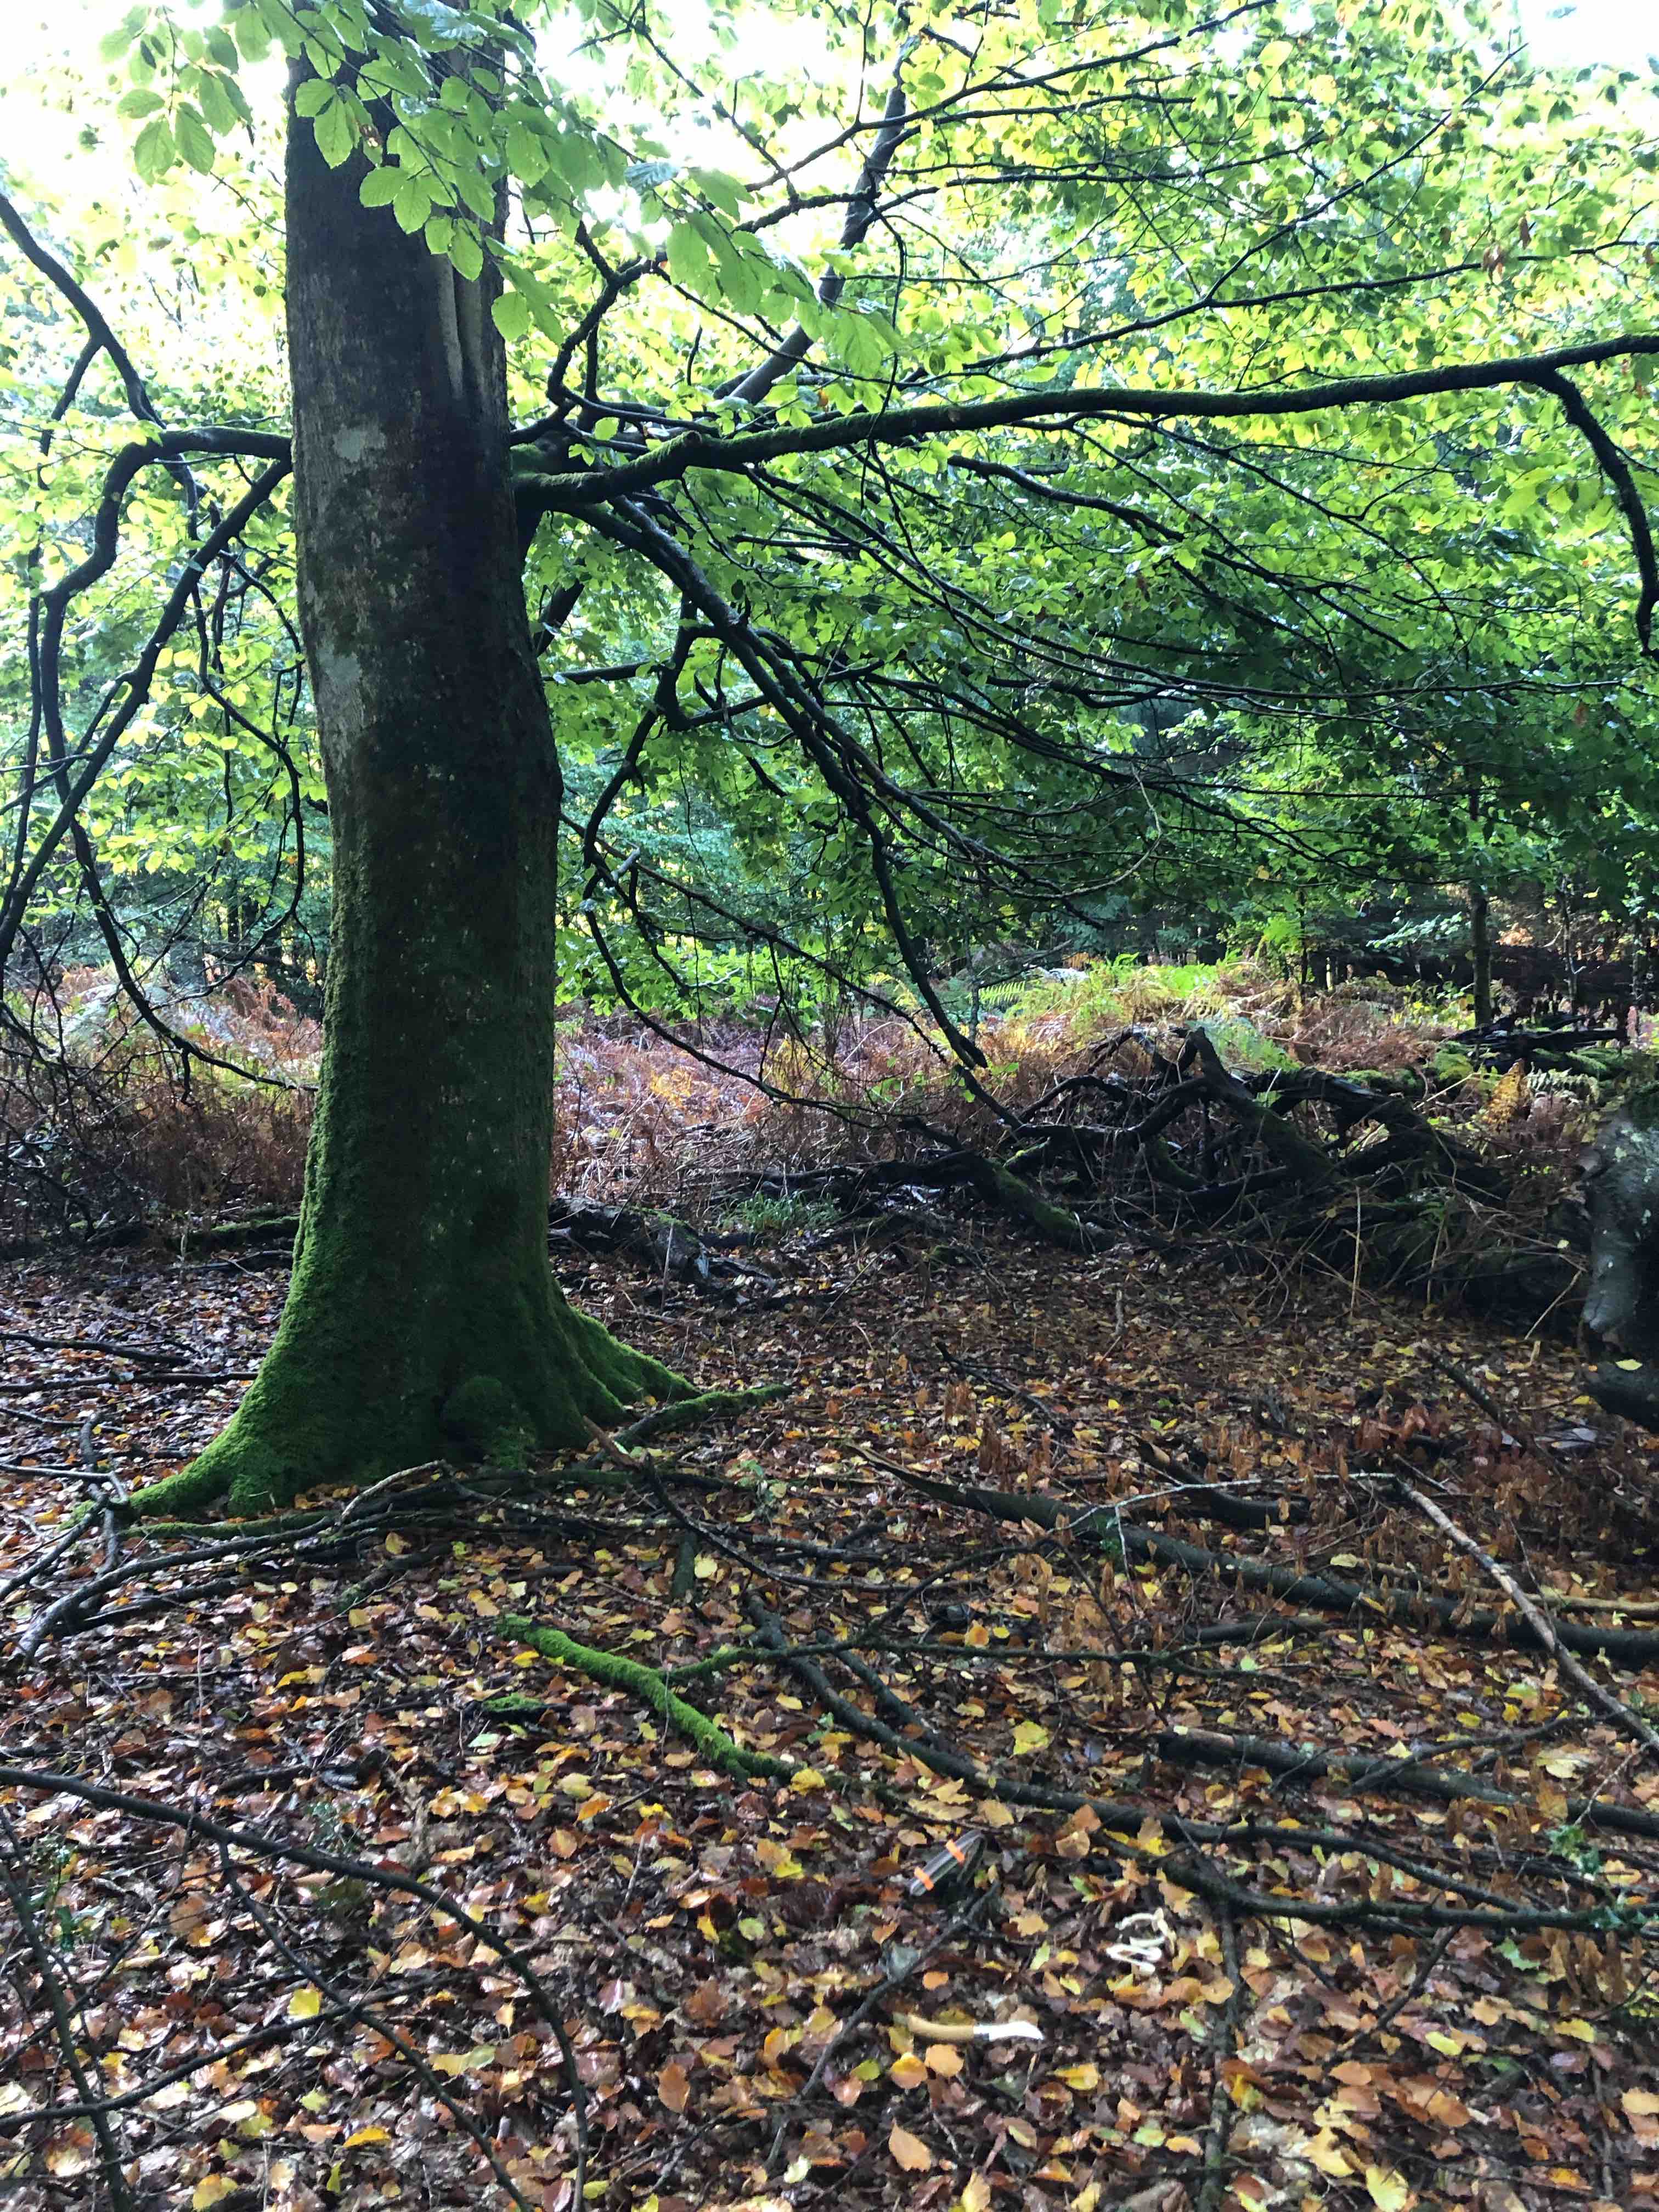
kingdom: Fungi
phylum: Basidiomycota
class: Agaricomycetes
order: Agaricales
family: Cortinariaceae
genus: Cortinarius
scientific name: Cortinarius
